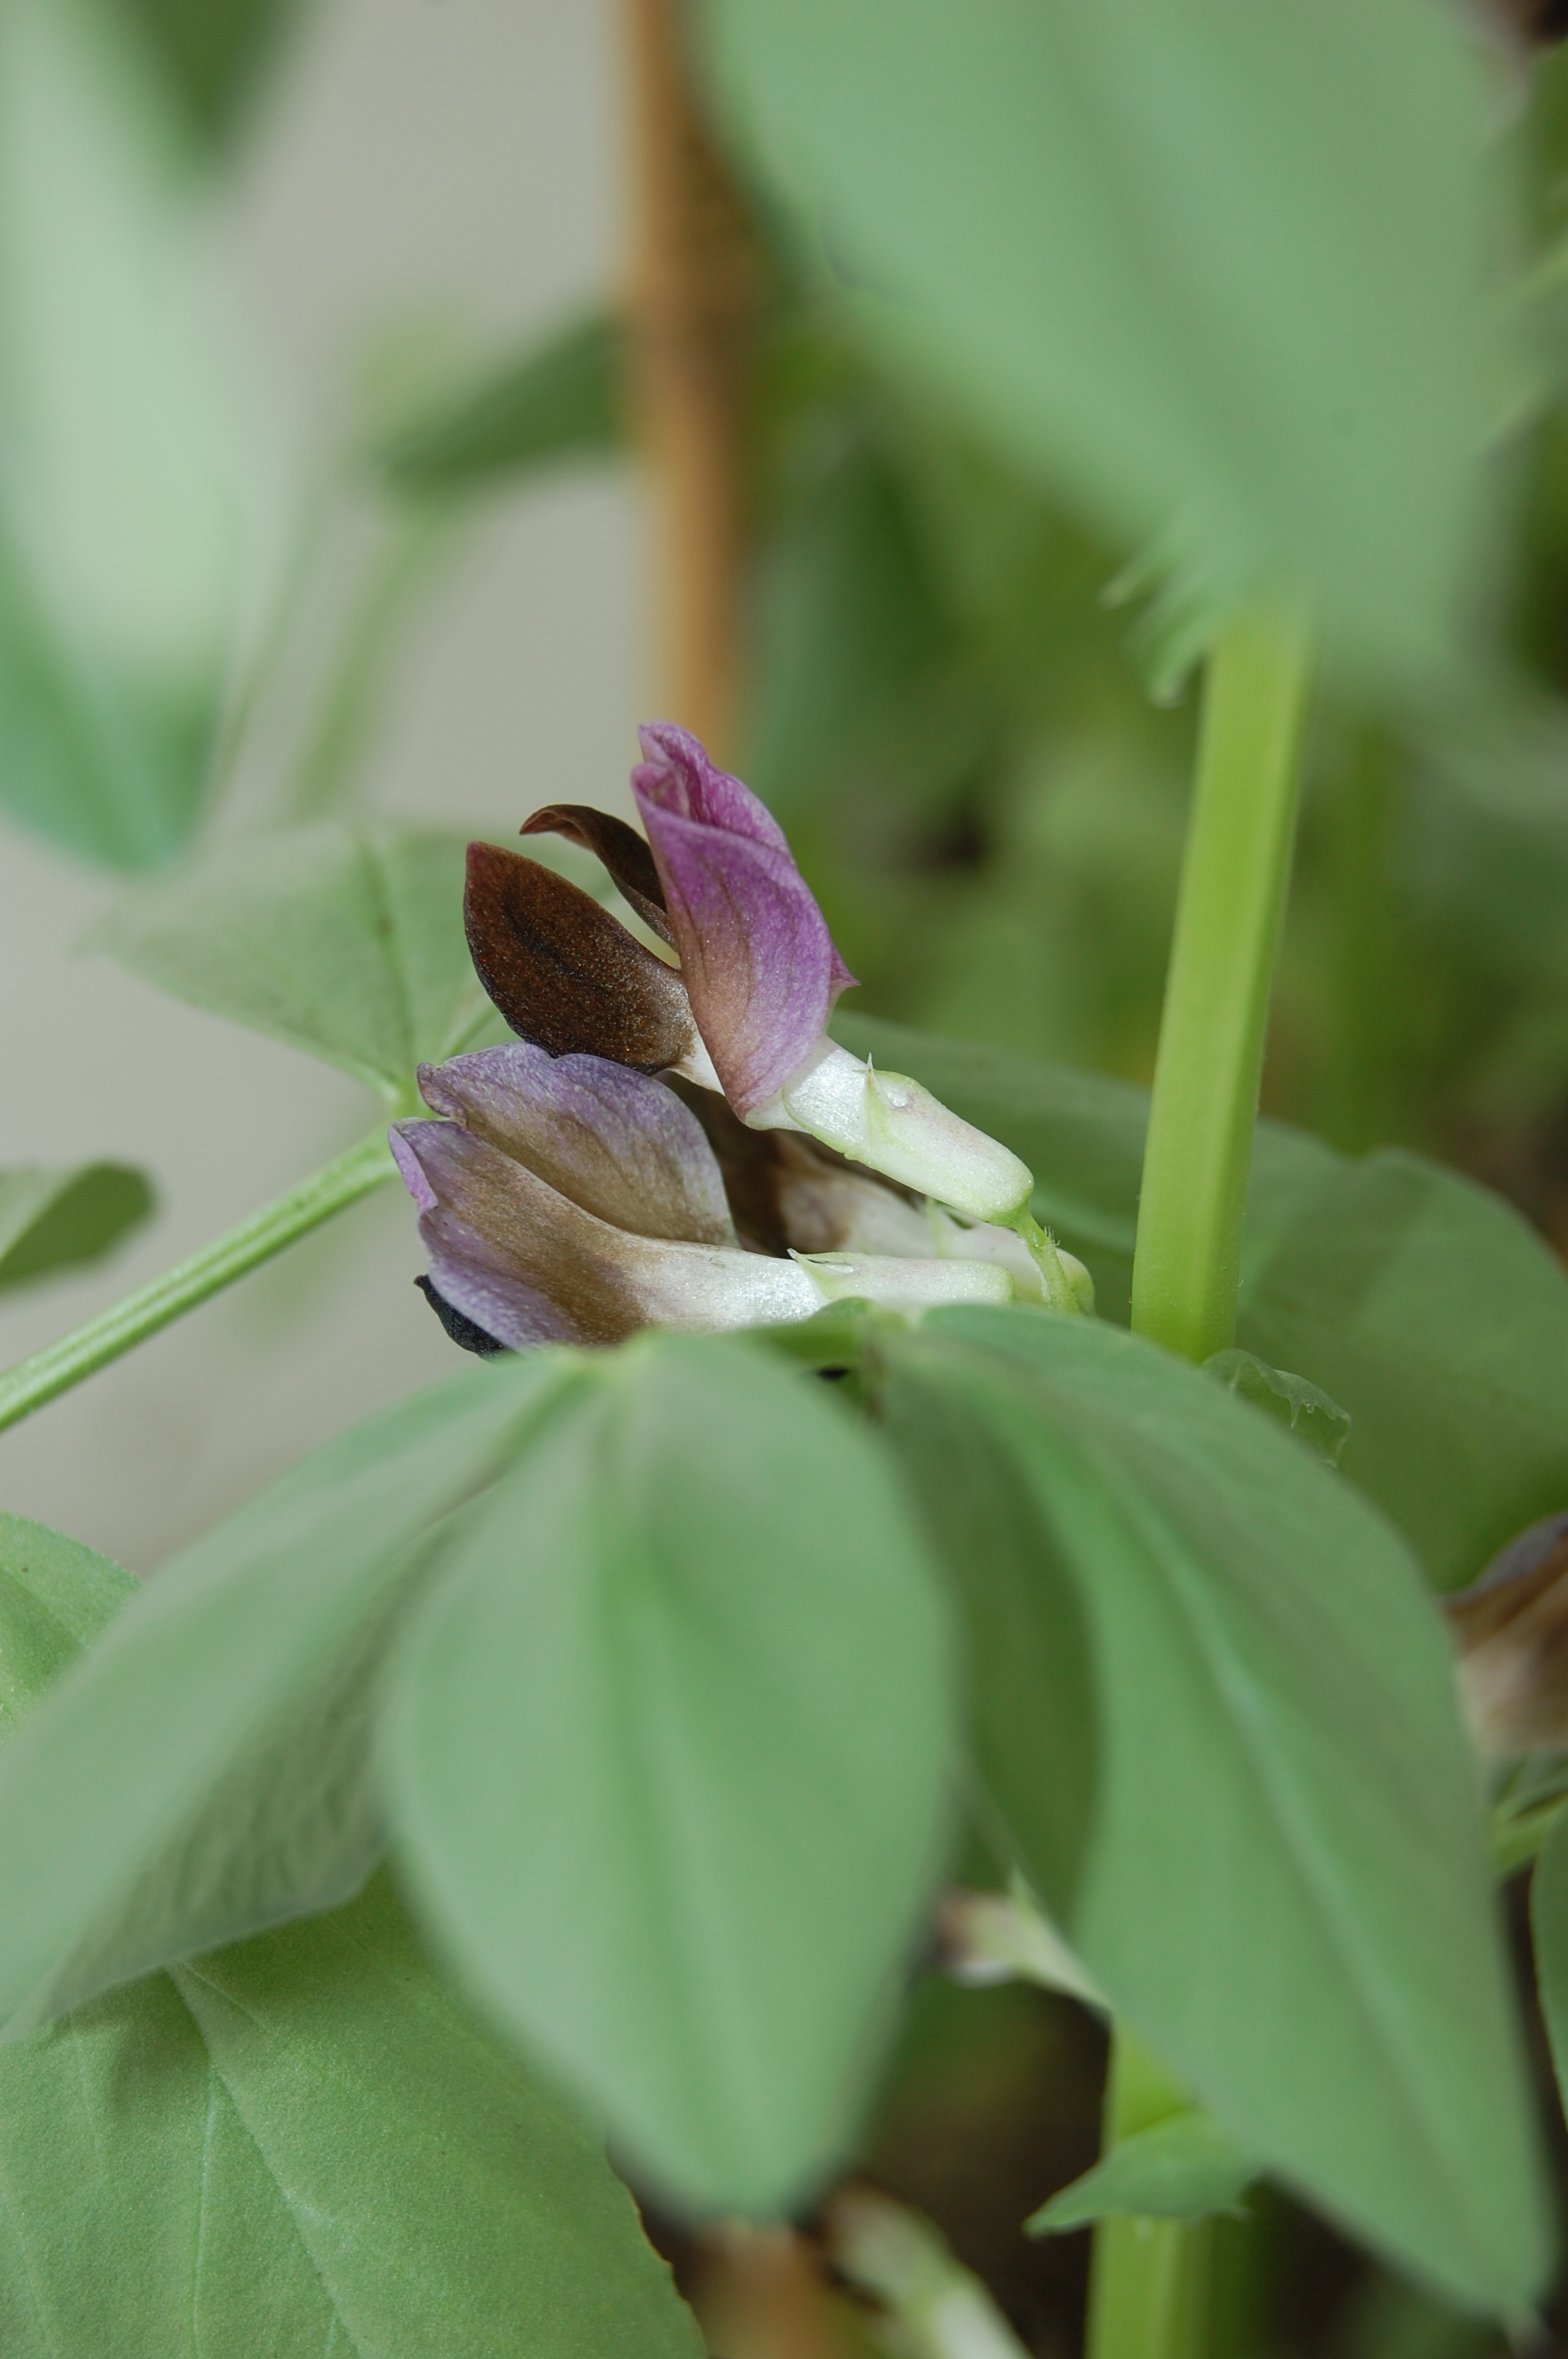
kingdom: Plantae
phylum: Tracheophyta
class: Magnoliopsida
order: Fabales
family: Fabaceae
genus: Vicia
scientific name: Vicia faba
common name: Broad bean
